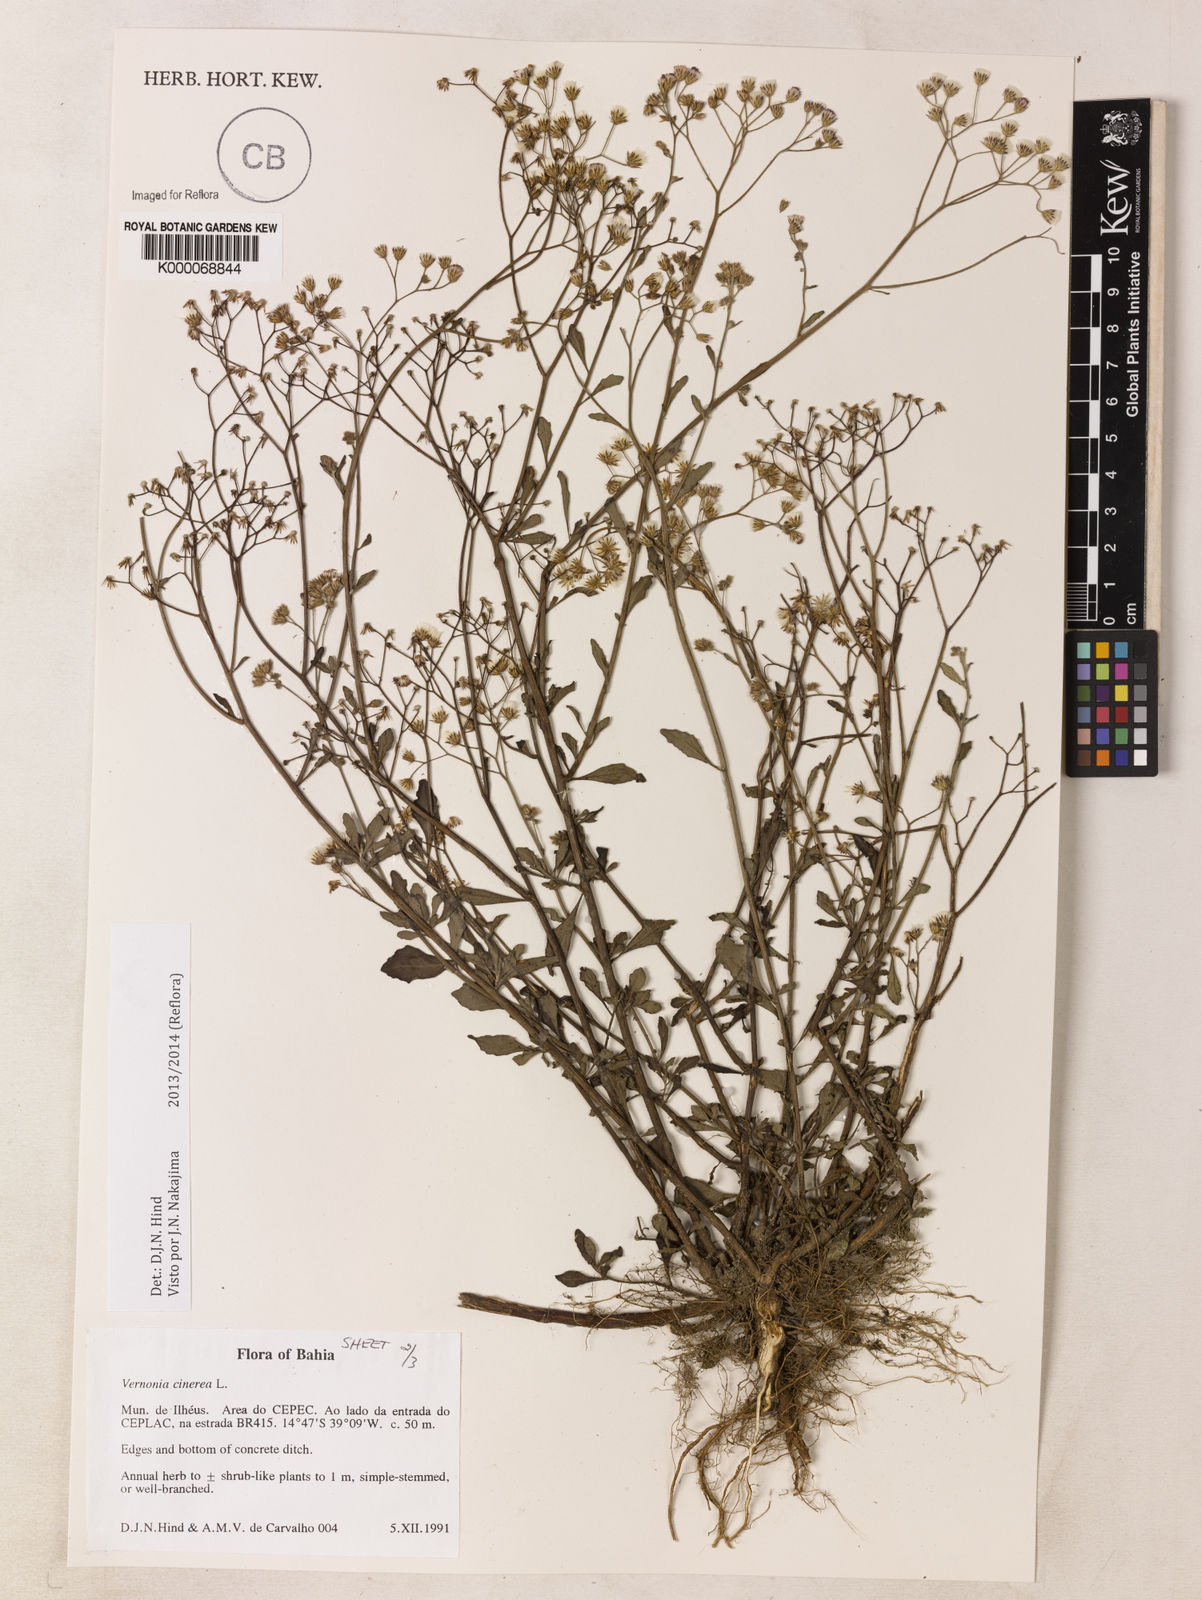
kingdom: Plantae
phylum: Tracheophyta
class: Magnoliopsida
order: Asterales
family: Asteraceae
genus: Cyanthillium
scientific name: Cyanthillium cinereum
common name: Little ironweed
